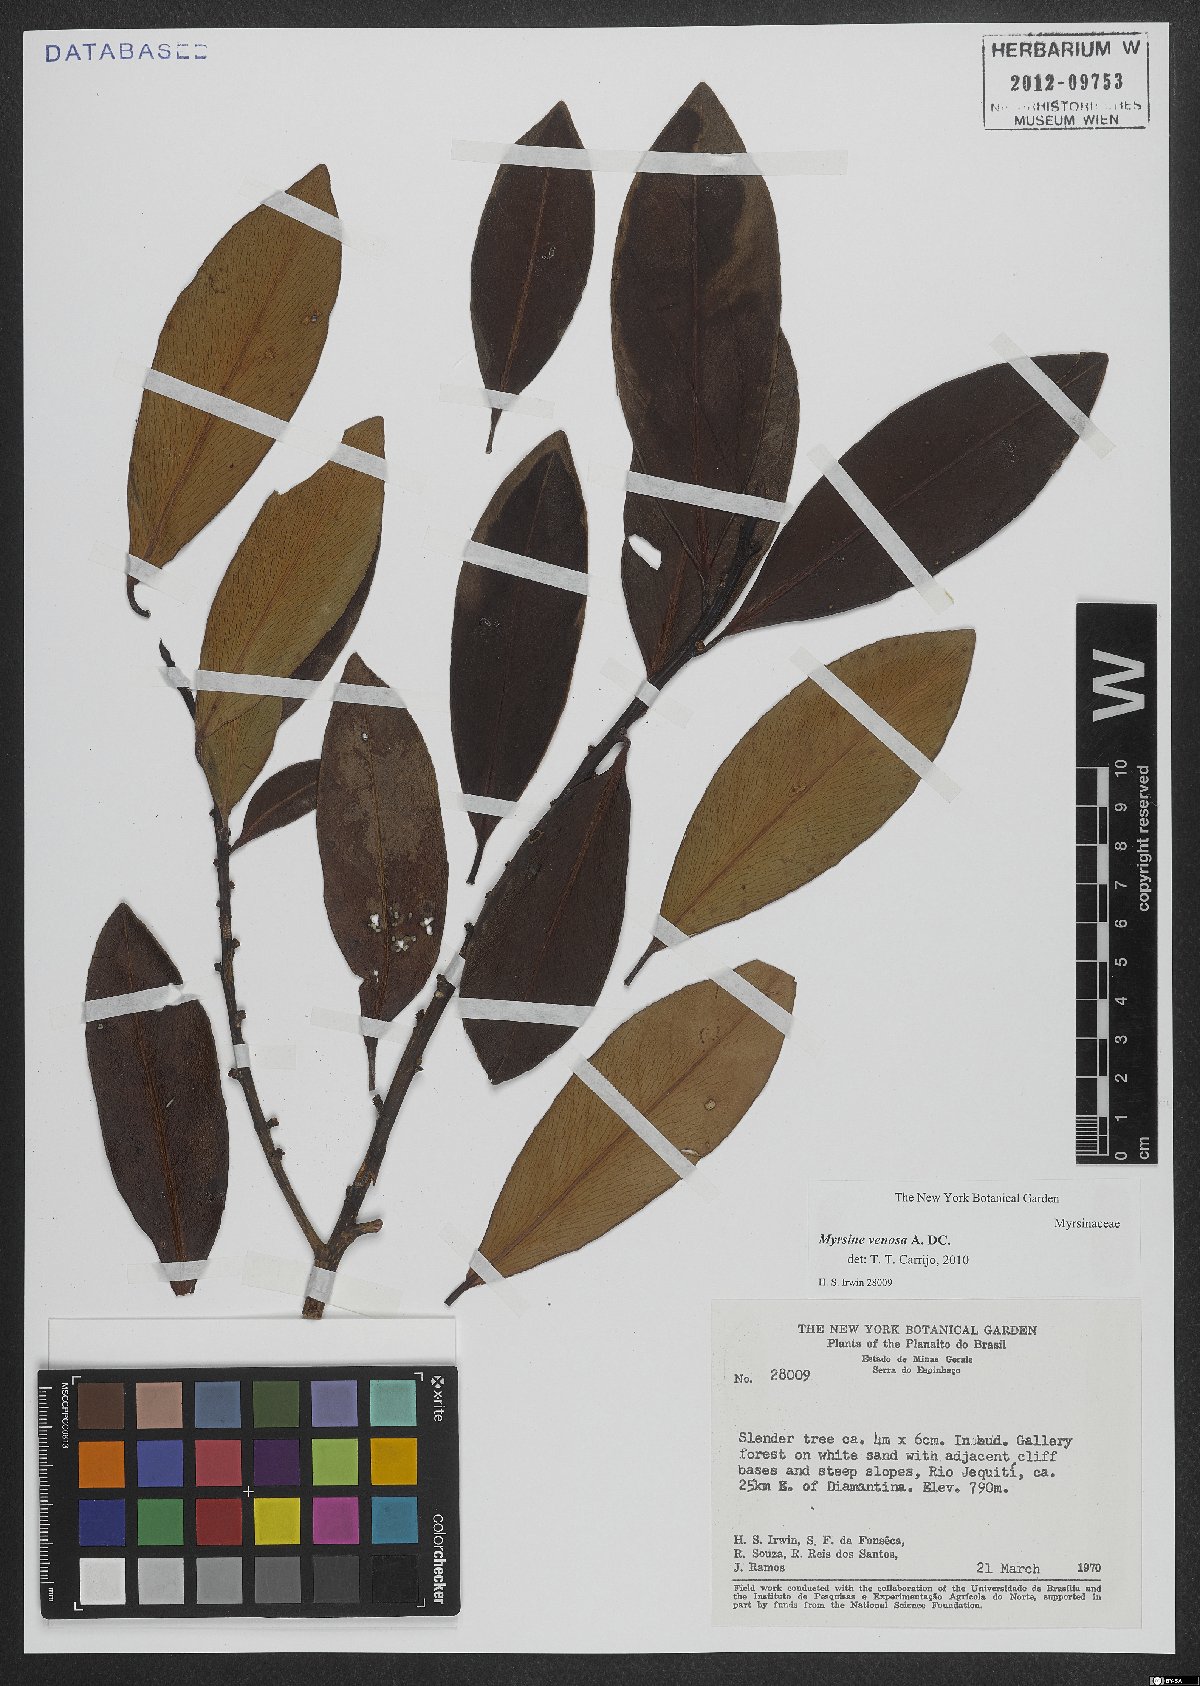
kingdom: Plantae
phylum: Tracheophyta
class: Magnoliopsida
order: Ericales
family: Primulaceae
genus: Myrsine
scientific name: Myrsine venosa
